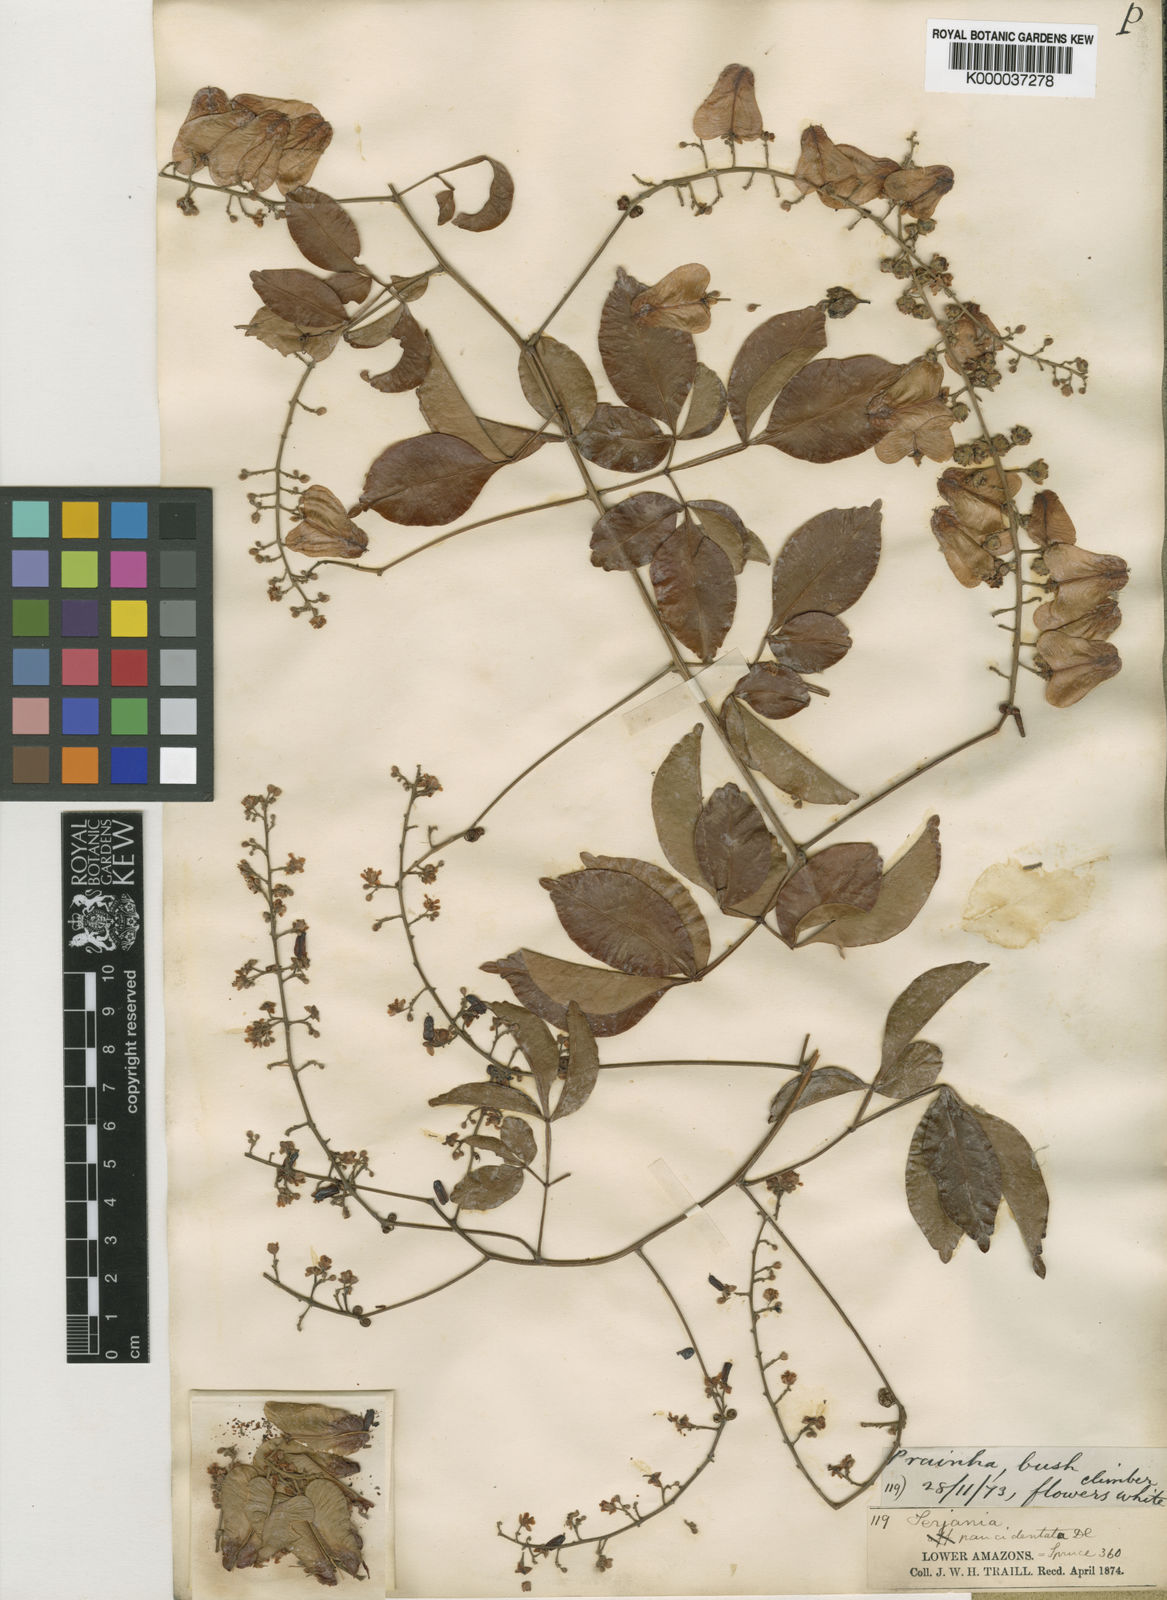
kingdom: Plantae
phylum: Tracheophyta
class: Magnoliopsida
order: Sapindales
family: Sapindaceae
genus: Serjania
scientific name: Serjania paucidentata
